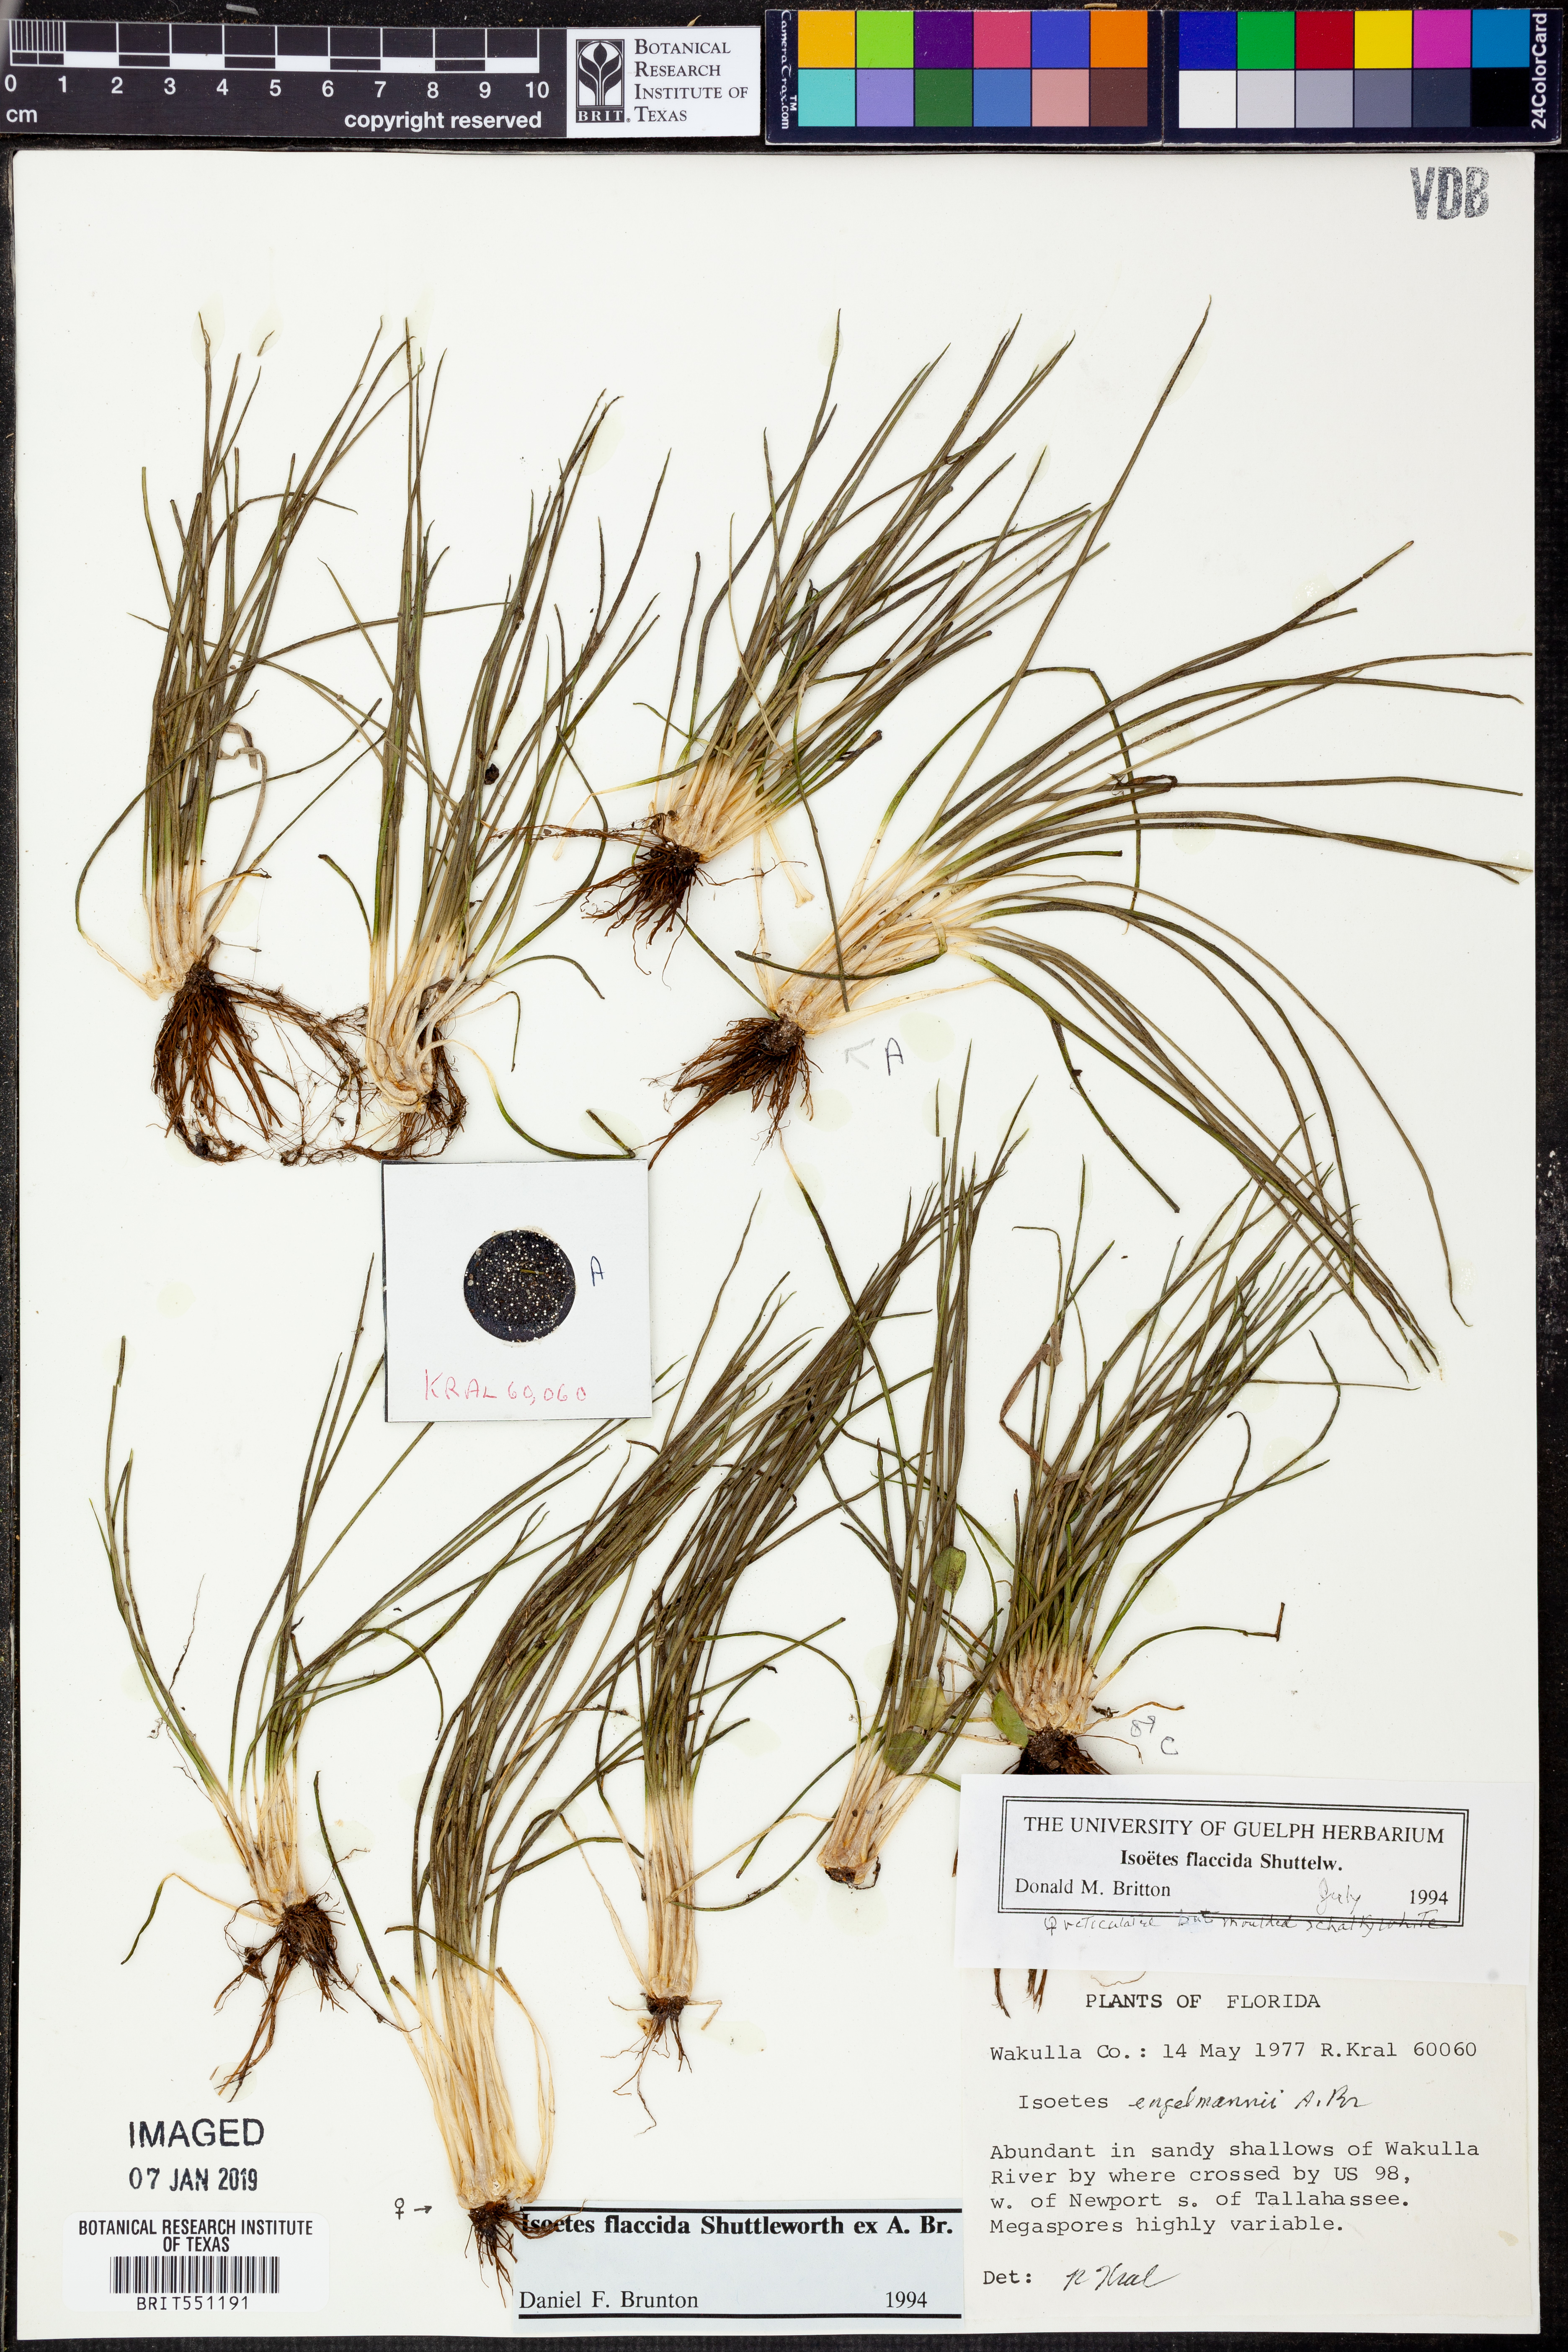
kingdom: Plantae
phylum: Tracheophyta
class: Lycopodiopsida
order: Isoetales
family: Isoetaceae
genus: Isoetes
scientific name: Isoetes flaccida
